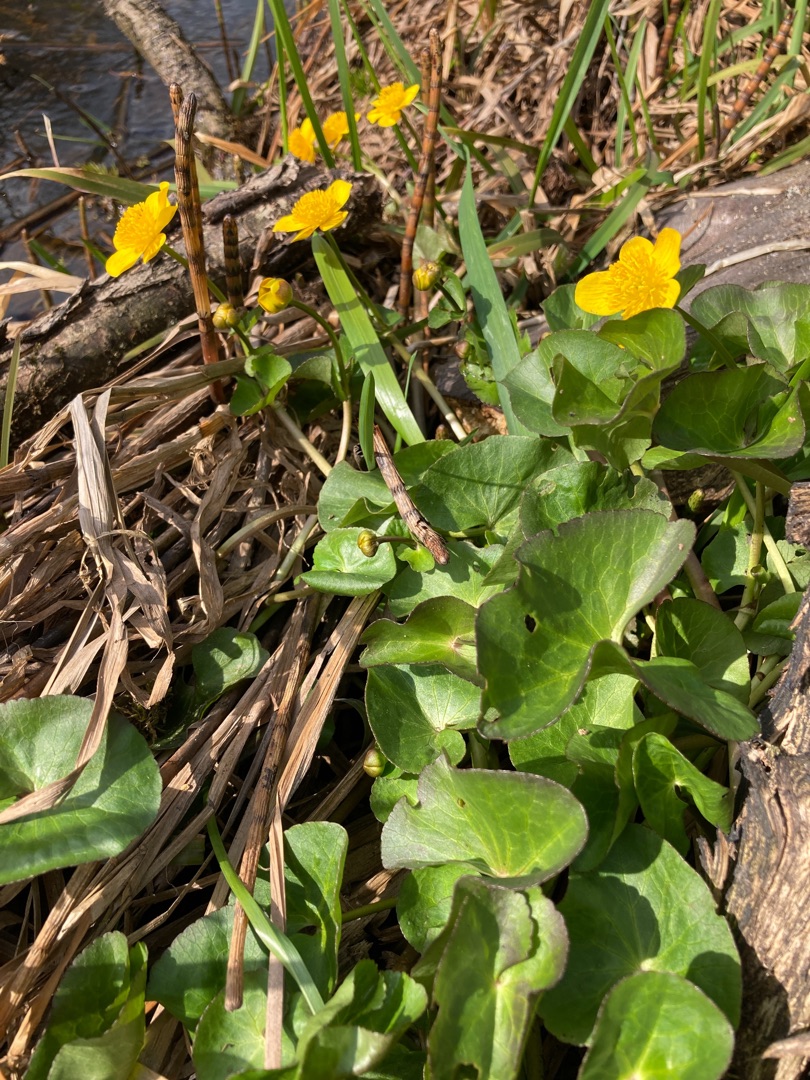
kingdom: Plantae
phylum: Tracheophyta
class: Magnoliopsida
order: Ranunculales
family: Ranunculaceae
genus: Caltha
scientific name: Caltha palustris
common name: Eng-kabbeleje
